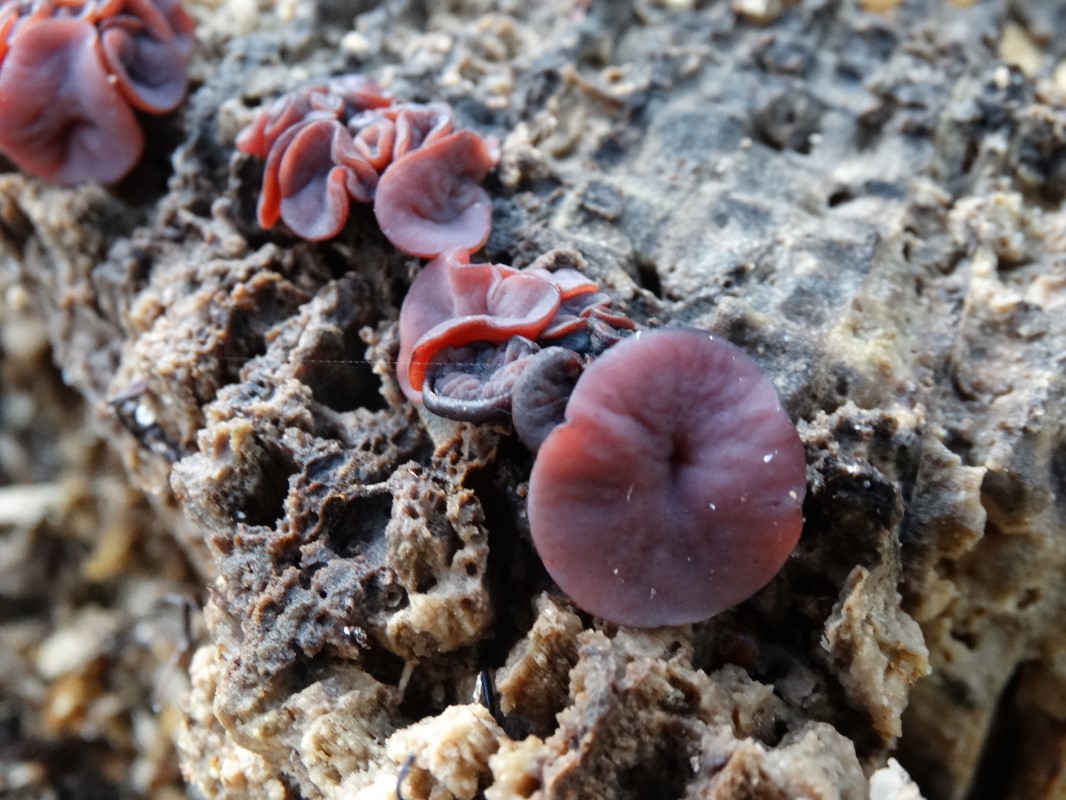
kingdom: Fungi
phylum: Ascomycota
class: Leotiomycetes
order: Helotiales
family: Gelatinodiscaceae
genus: Ascocoryne
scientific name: Ascocoryne cylichnium
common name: stor sejskive
